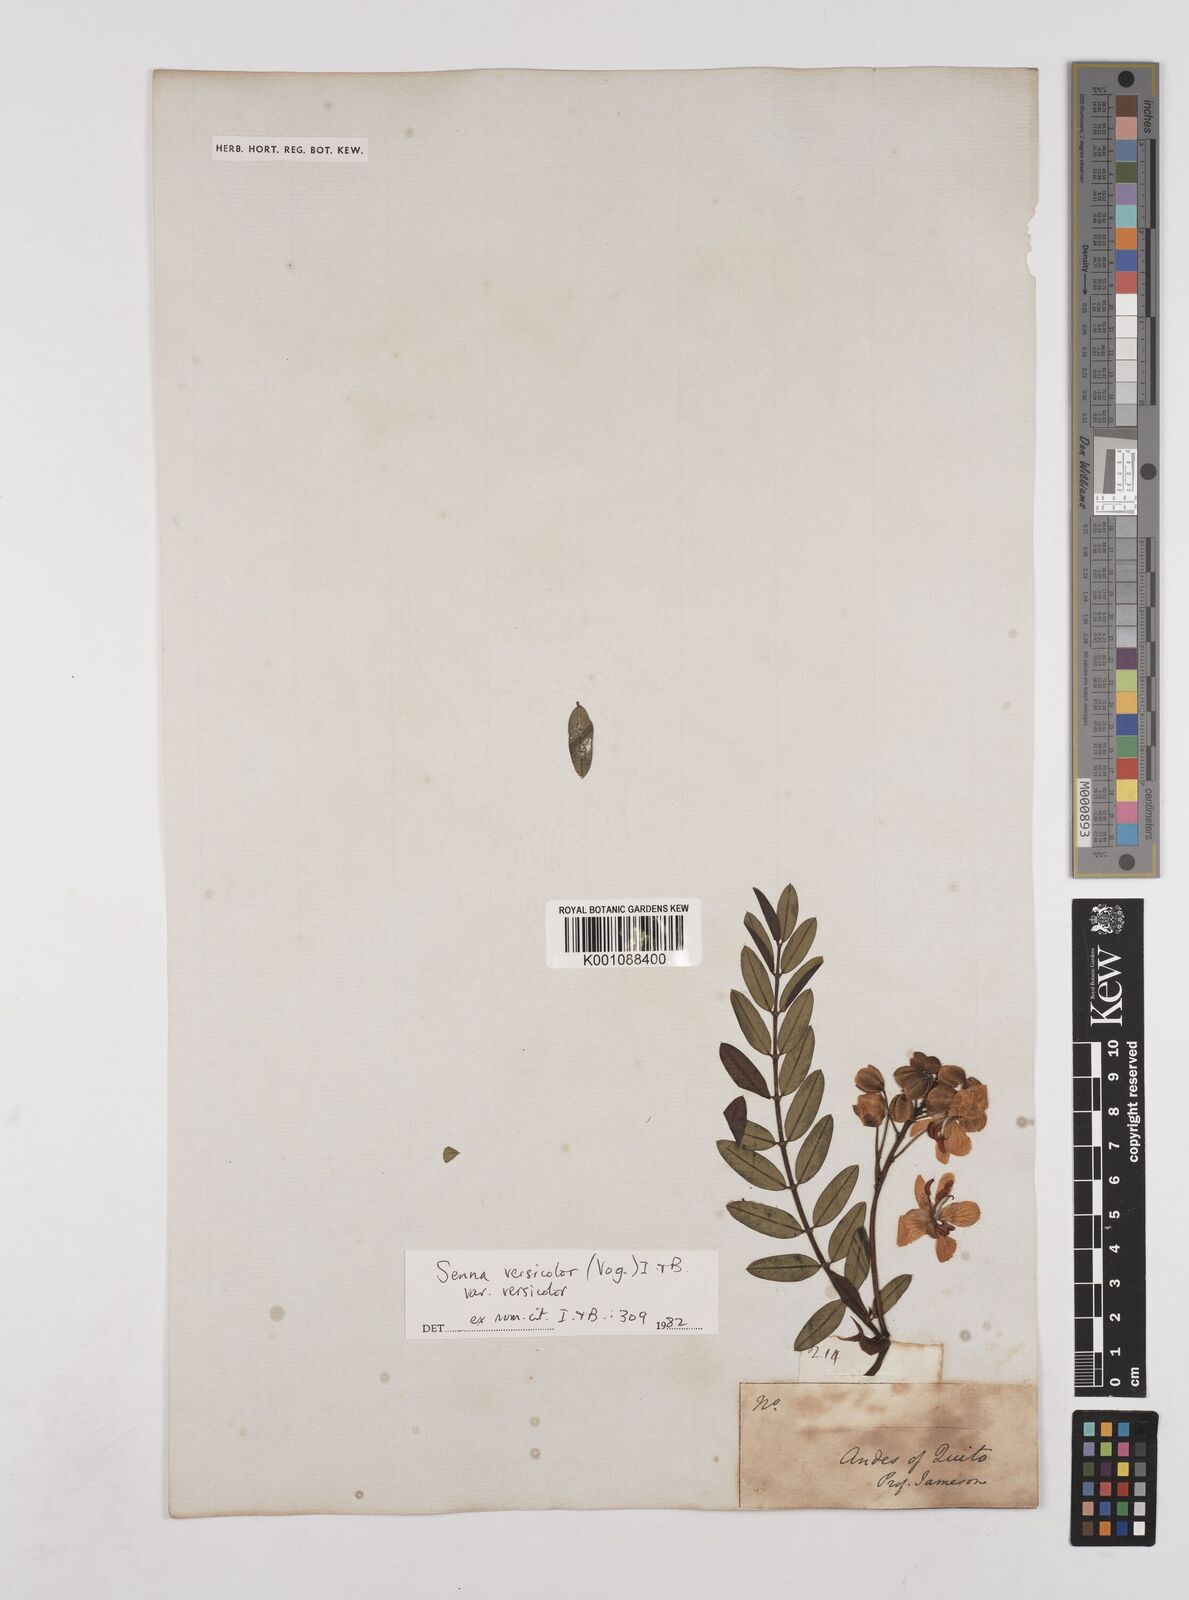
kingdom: Plantae
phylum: Tracheophyta
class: Magnoliopsida
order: Fabales
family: Fabaceae
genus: Senna
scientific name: Senna versicolor
